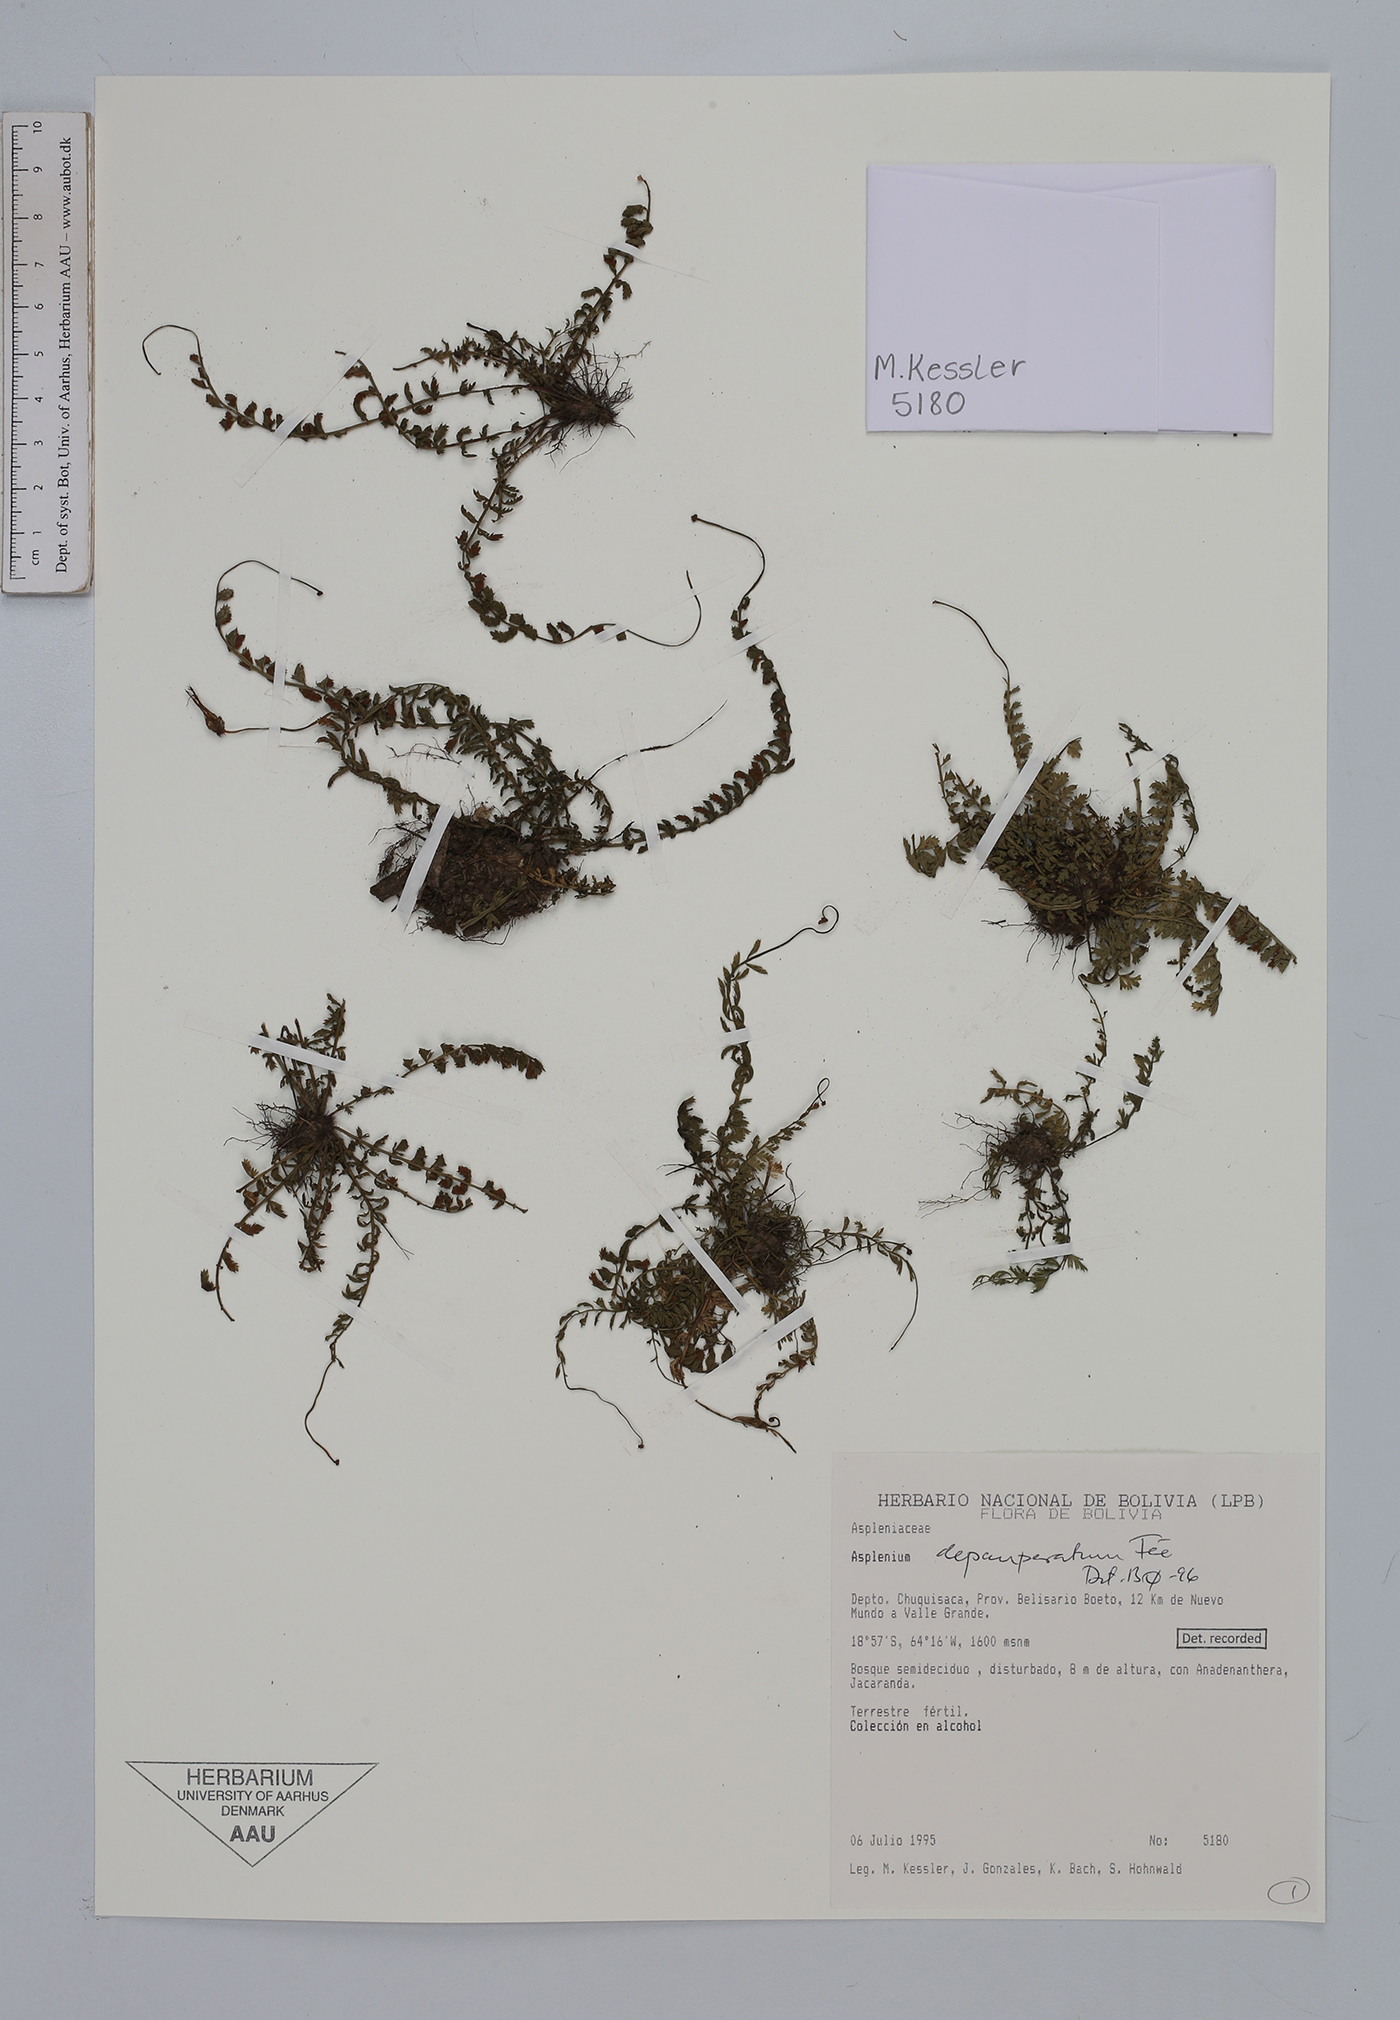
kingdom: Plantae
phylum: Tracheophyta
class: Polypodiopsida
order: Polypodiales
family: Aspleniaceae
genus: Asplenium
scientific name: Asplenium depauperatum
